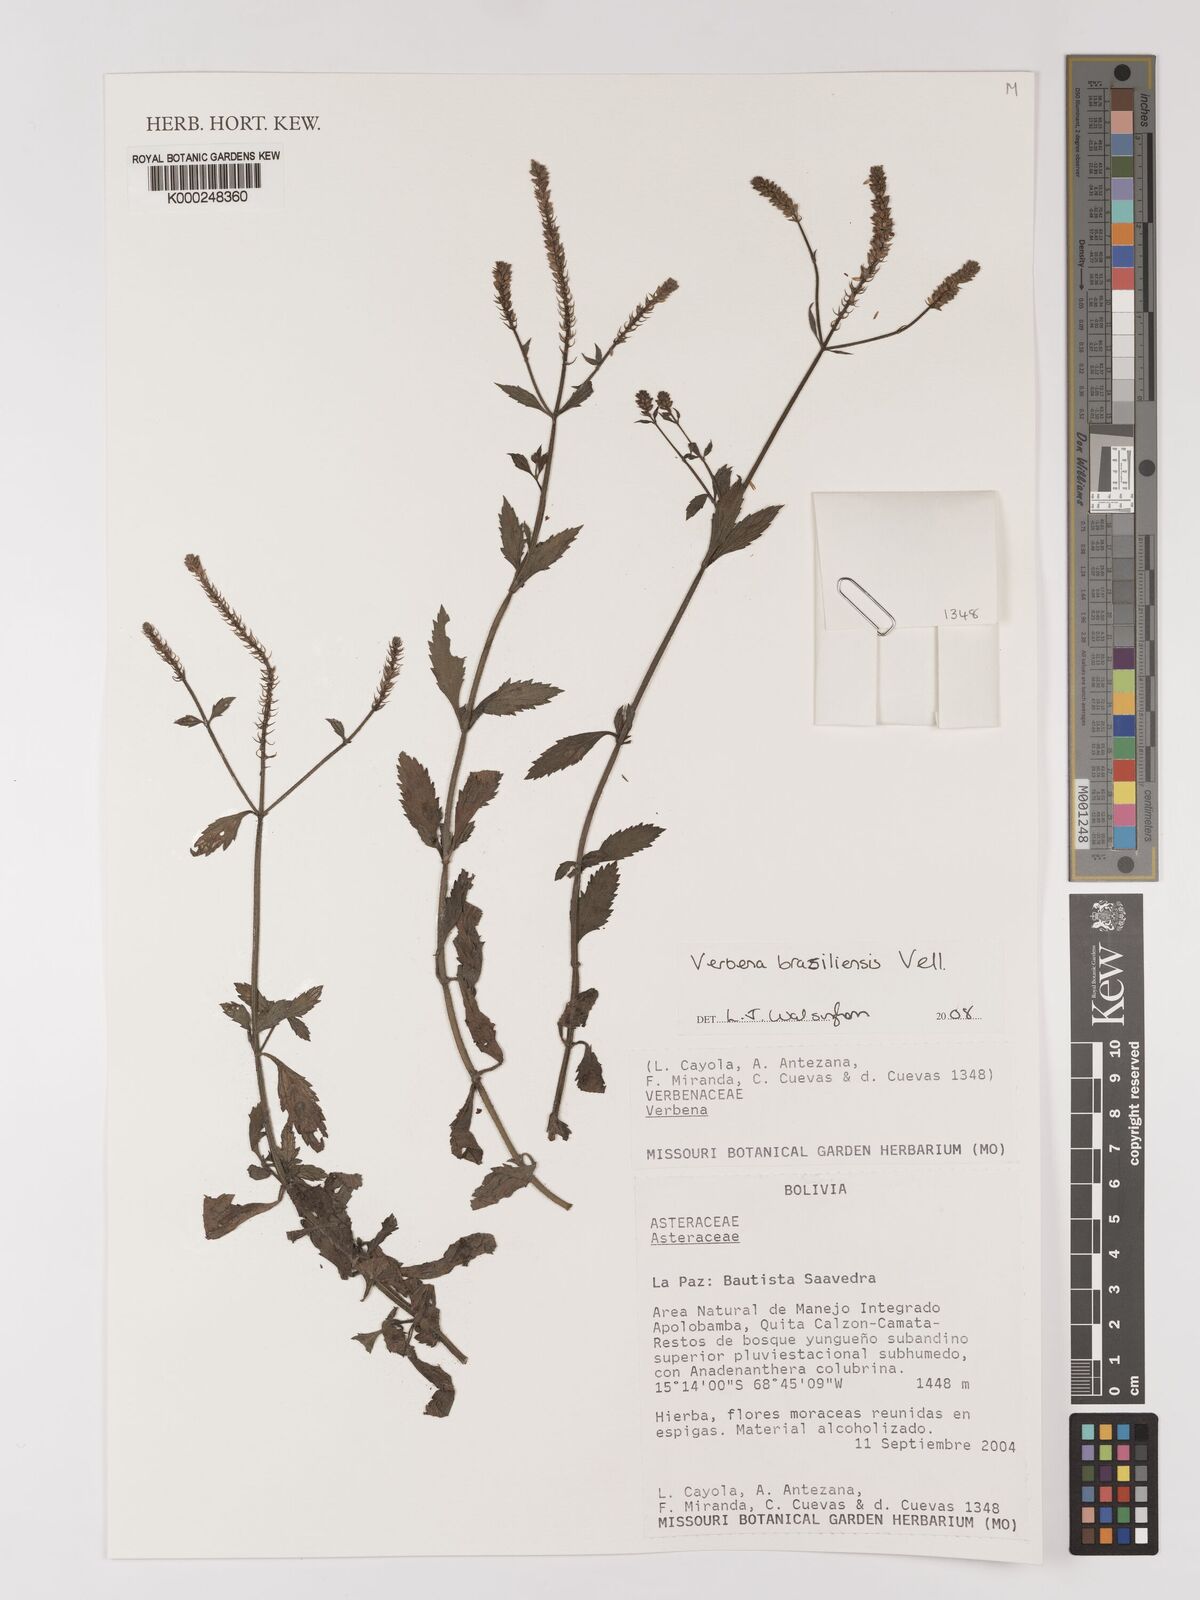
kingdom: Plantae
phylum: Tracheophyta
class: Magnoliopsida
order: Lamiales
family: Verbenaceae
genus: Verbena
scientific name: Verbena
